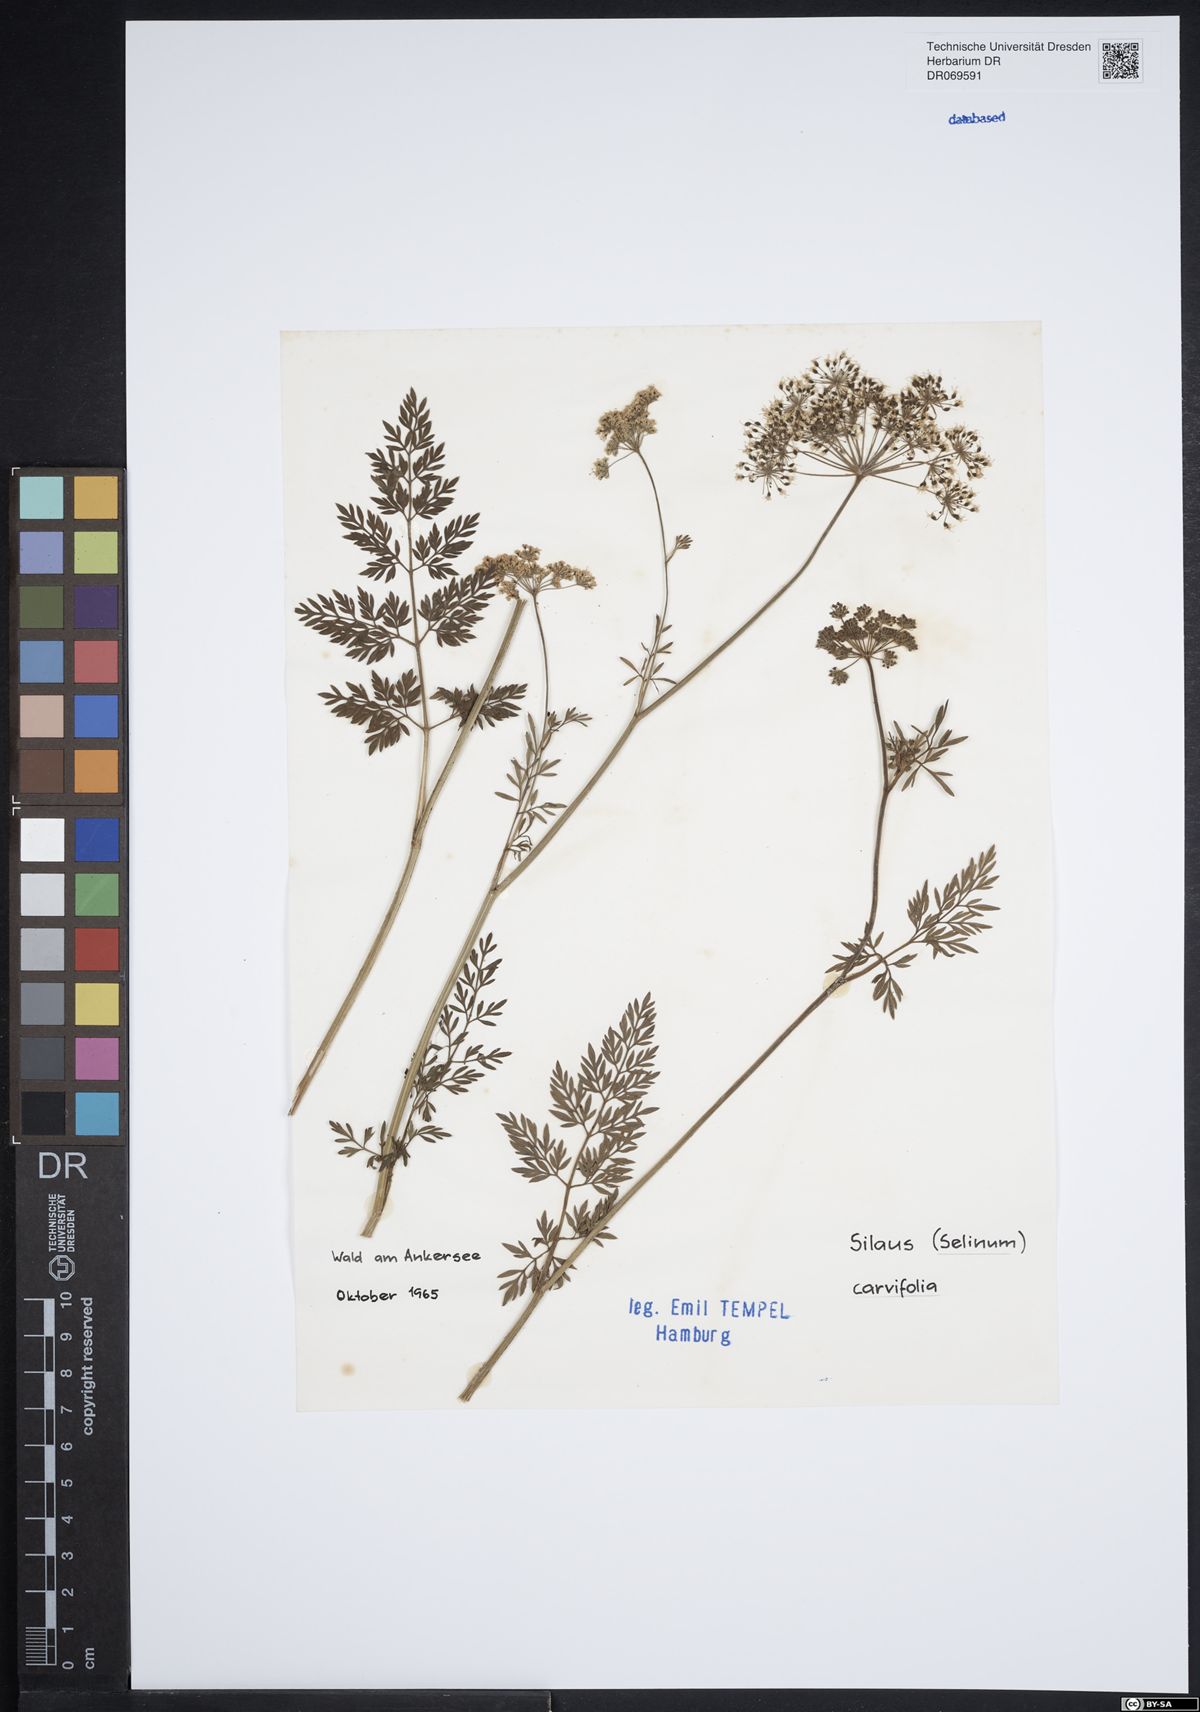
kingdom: Plantae
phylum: Tracheophyta
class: Magnoliopsida
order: Apiales
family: Apiaceae
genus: Selinum
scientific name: Selinum carvifolia
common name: Cambridge milk-parsley
